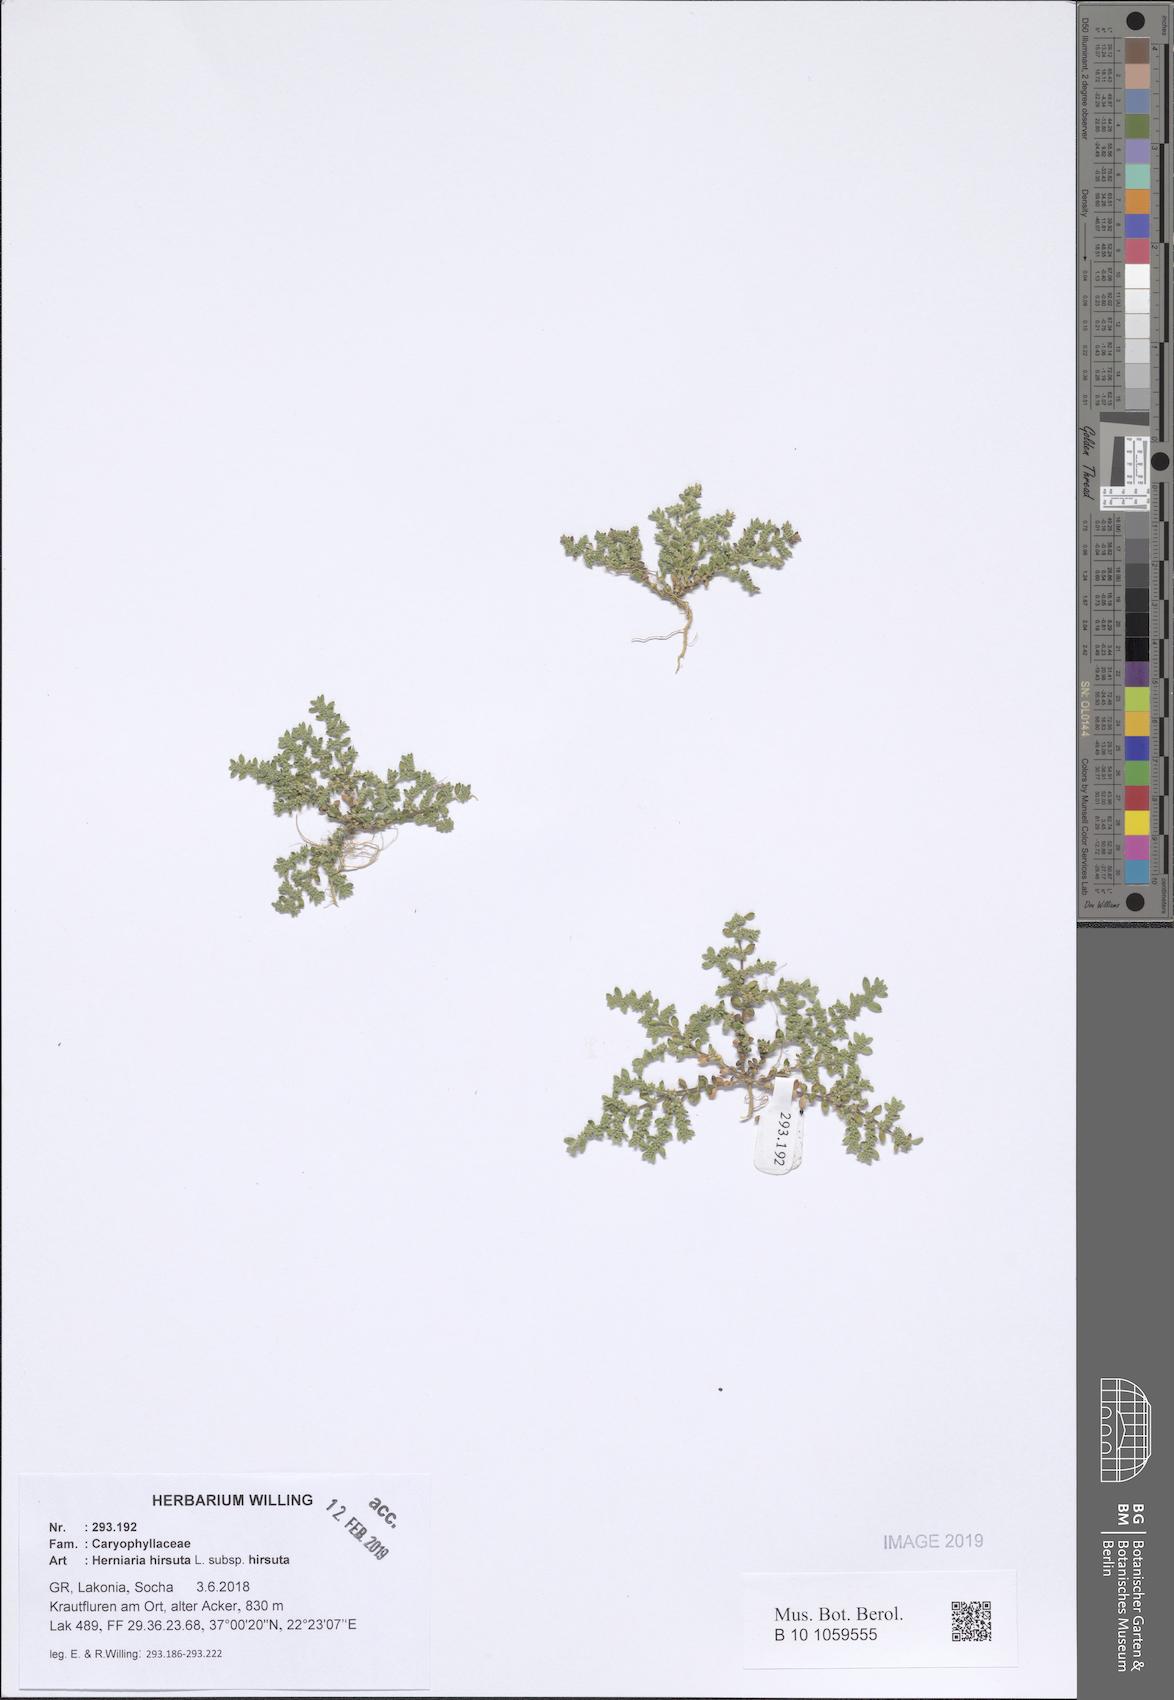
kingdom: Plantae
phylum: Tracheophyta
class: Magnoliopsida
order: Caryophyllales
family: Caryophyllaceae
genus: Herniaria
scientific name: Herniaria hirsuta
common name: Hairy rupturewort
